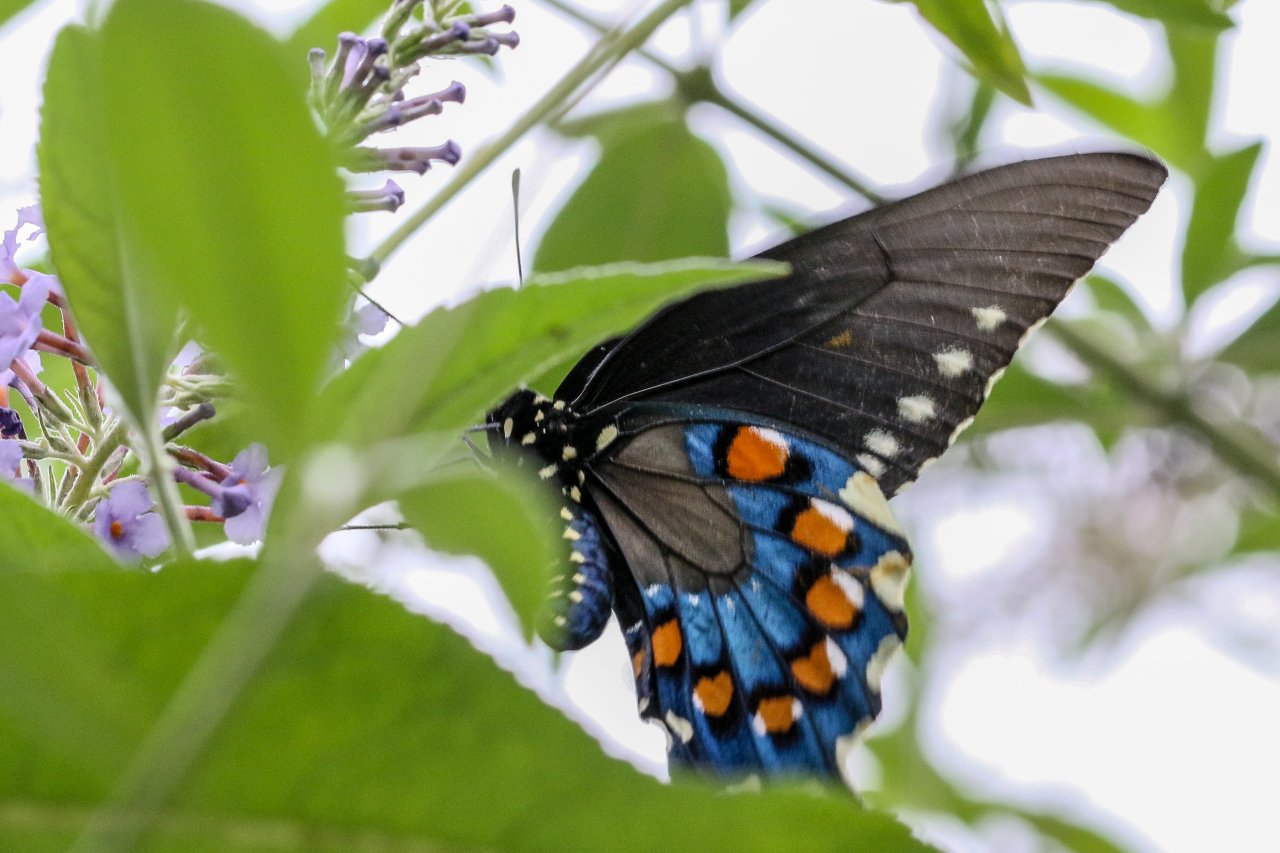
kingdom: Animalia
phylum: Arthropoda
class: Insecta
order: Lepidoptera
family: Papilionidae
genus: Battus
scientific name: Battus philenor
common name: Pipevine Swallowtail
